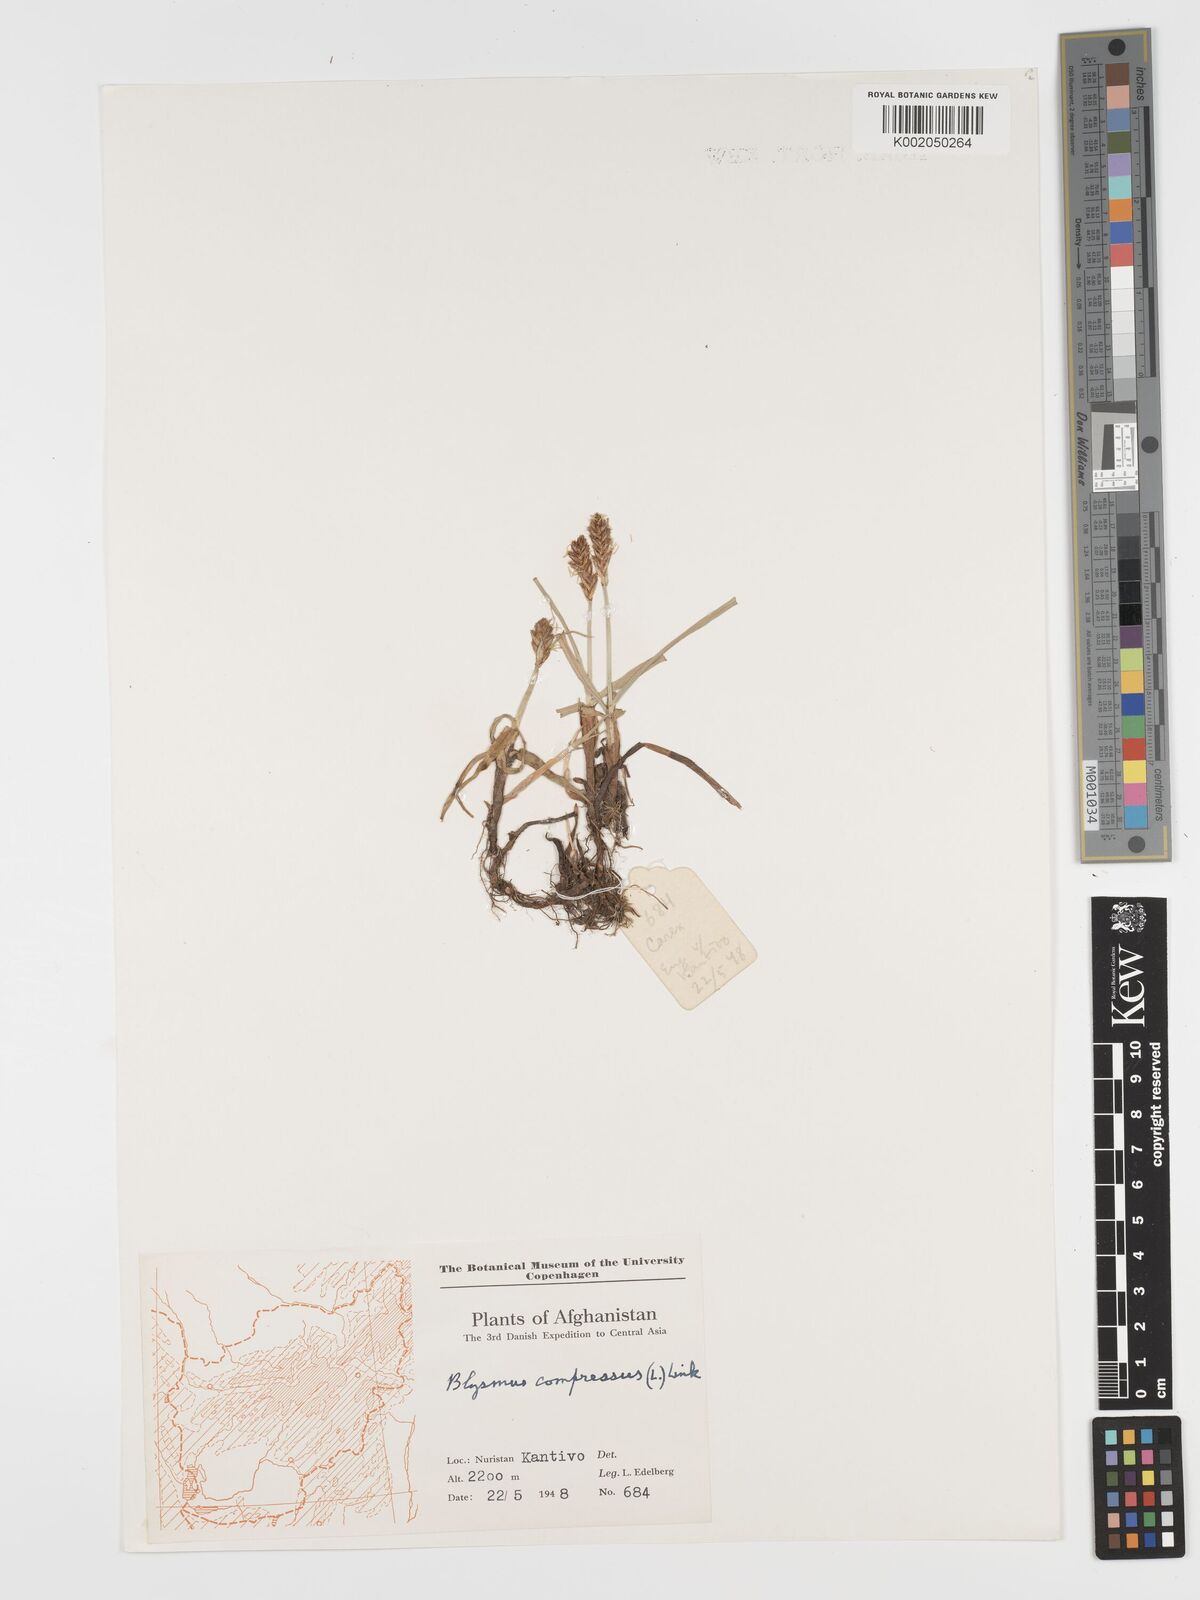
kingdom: Plantae
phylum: Tracheophyta
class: Liliopsida
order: Poales
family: Cyperaceae
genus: Blysmus
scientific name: Blysmus compressus
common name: Flat-sedge
